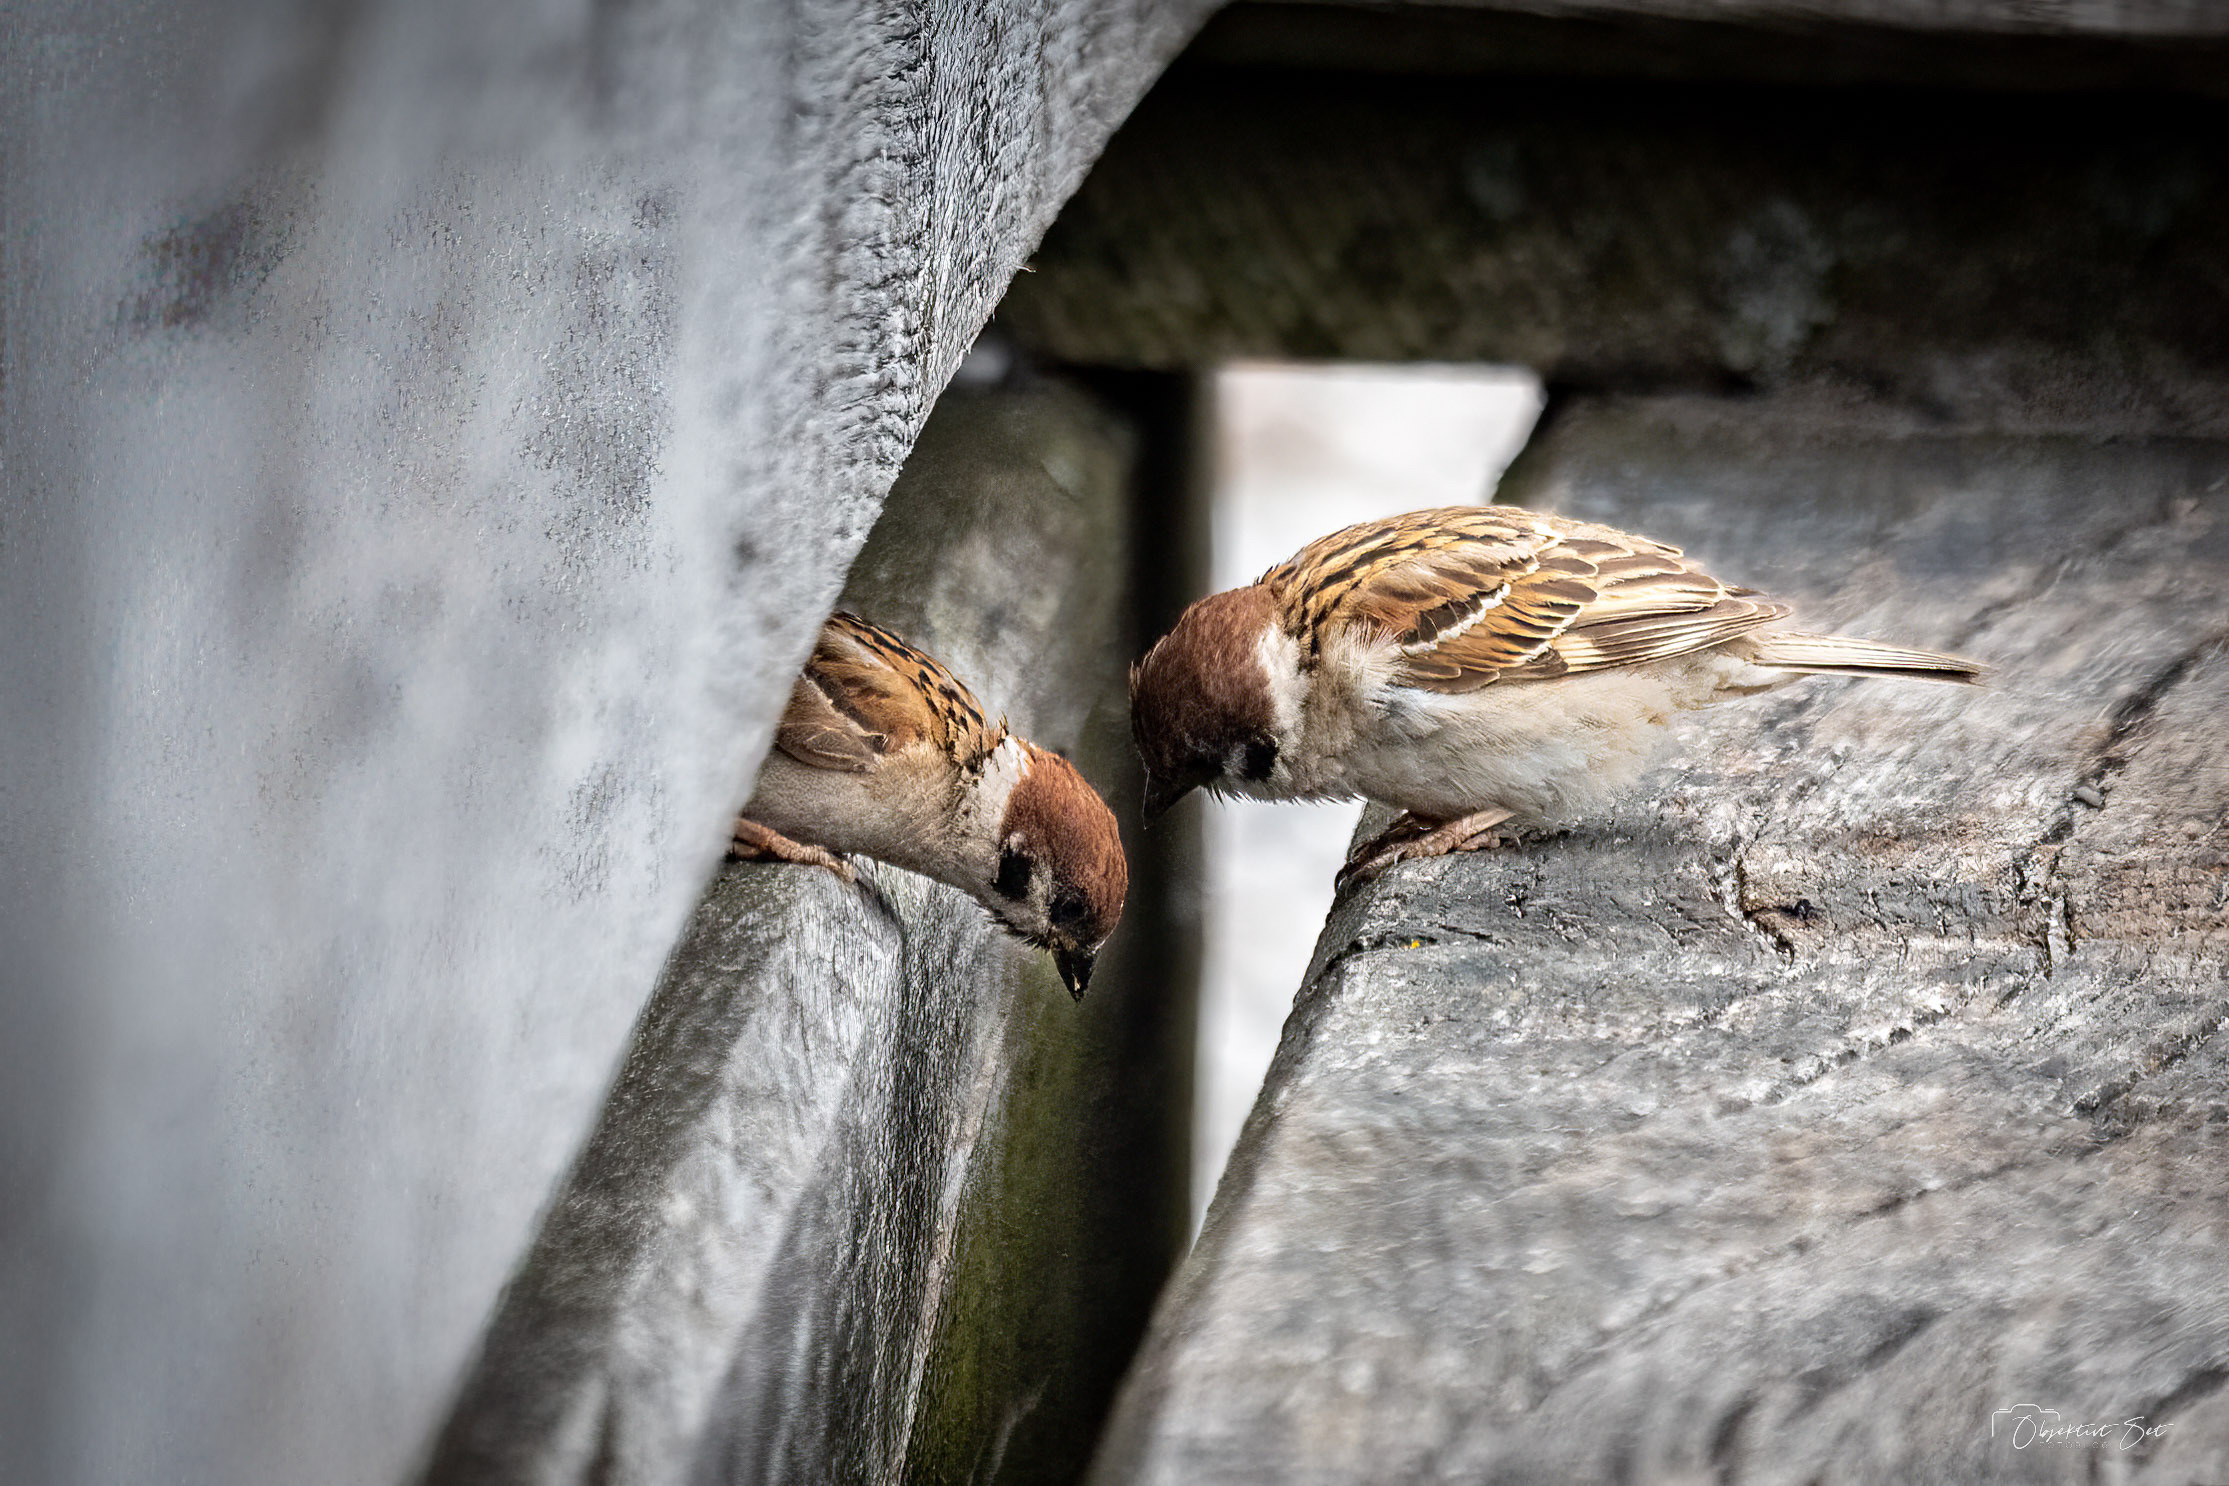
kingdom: Animalia
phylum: Chordata
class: Aves
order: Passeriformes
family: Passeridae
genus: Passer
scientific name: Passer montanus
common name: Skovspurv
